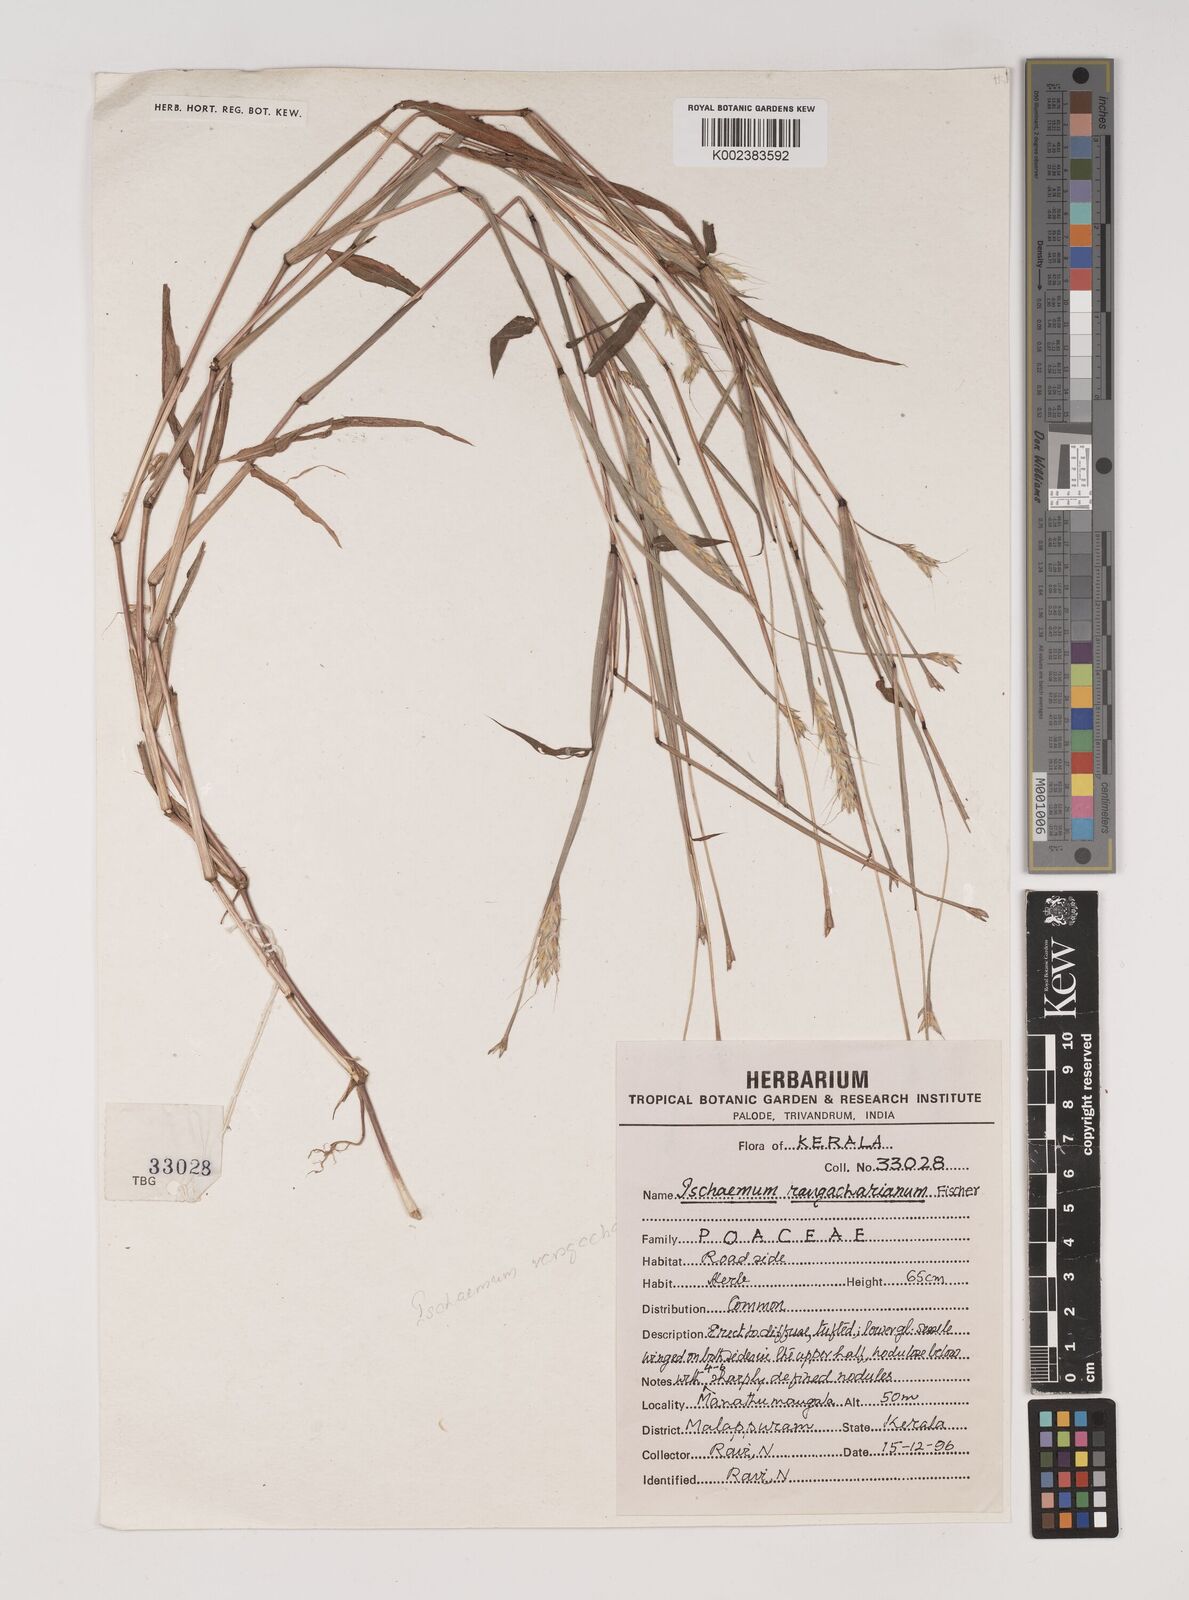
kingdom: Plantae
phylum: Tracheophyta
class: Liliopsida
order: Poales
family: Poaceae
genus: Ischaemum
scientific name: Ischaemum rangacharianum
